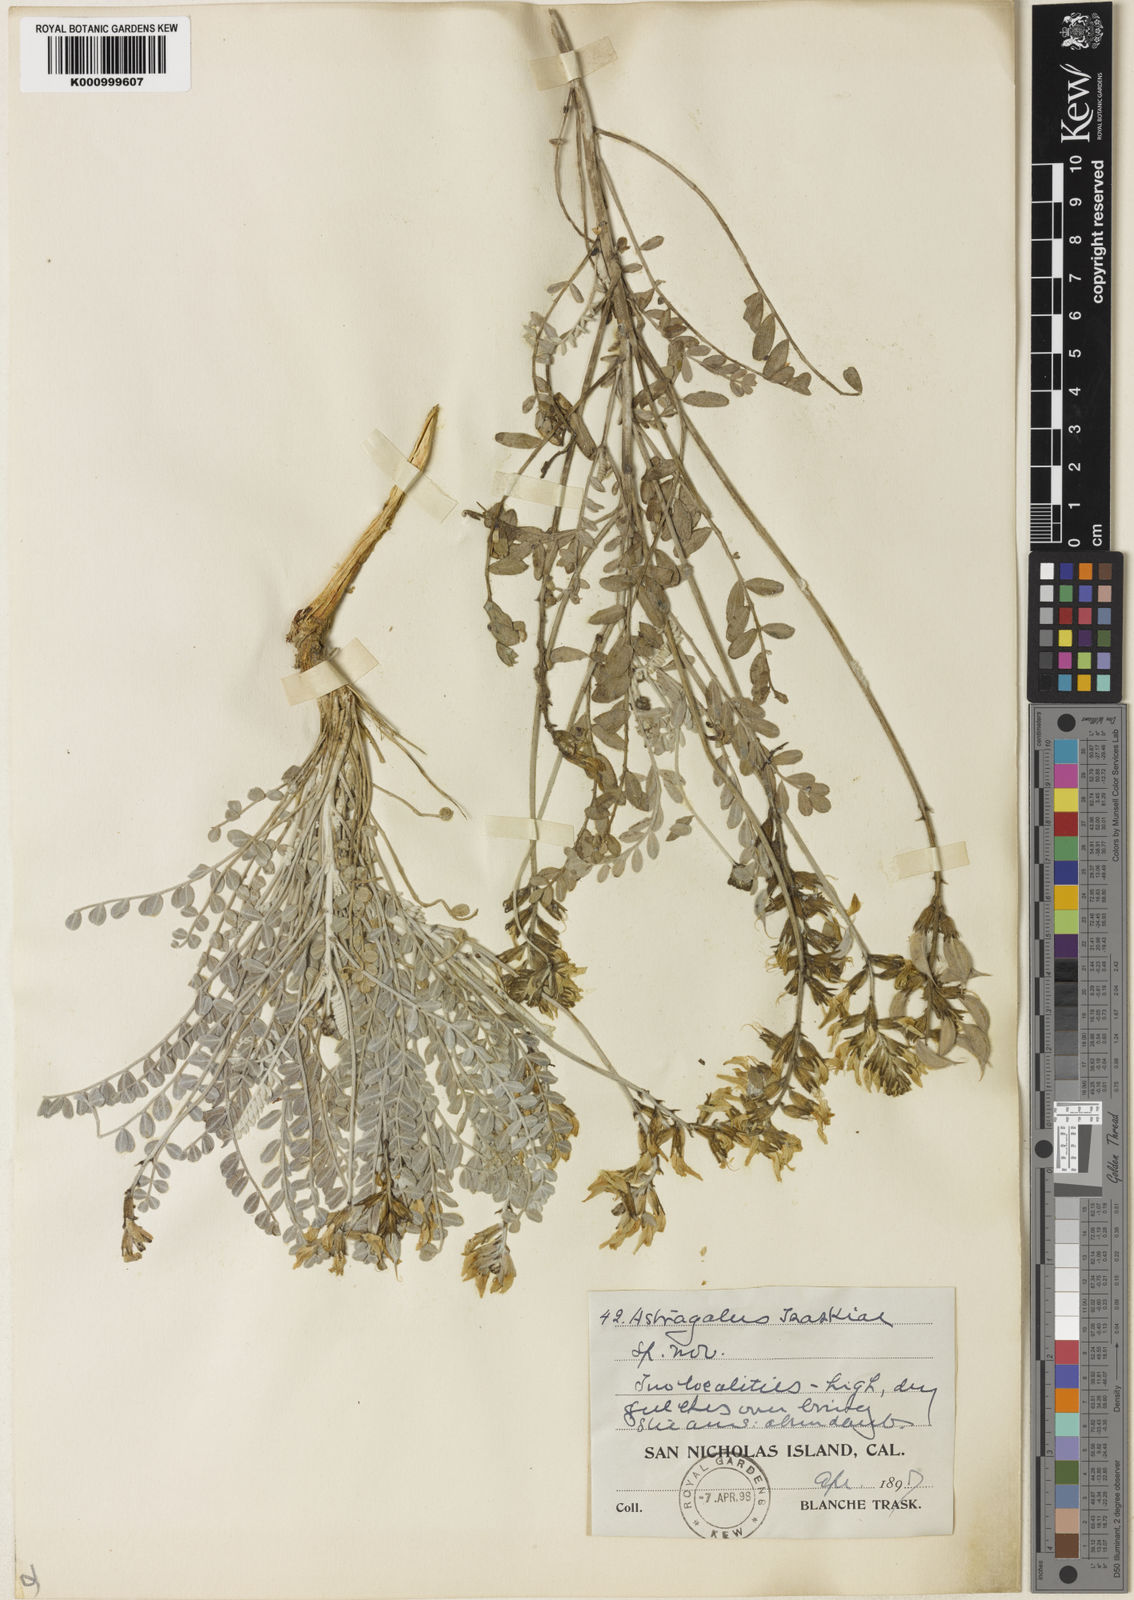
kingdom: Plantae
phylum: Tracheophyta
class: Magnoliopsida
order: Fabales
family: Fabaceae
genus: Astragalus
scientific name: Astragalus traskiae
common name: Trask's milk-vetch
